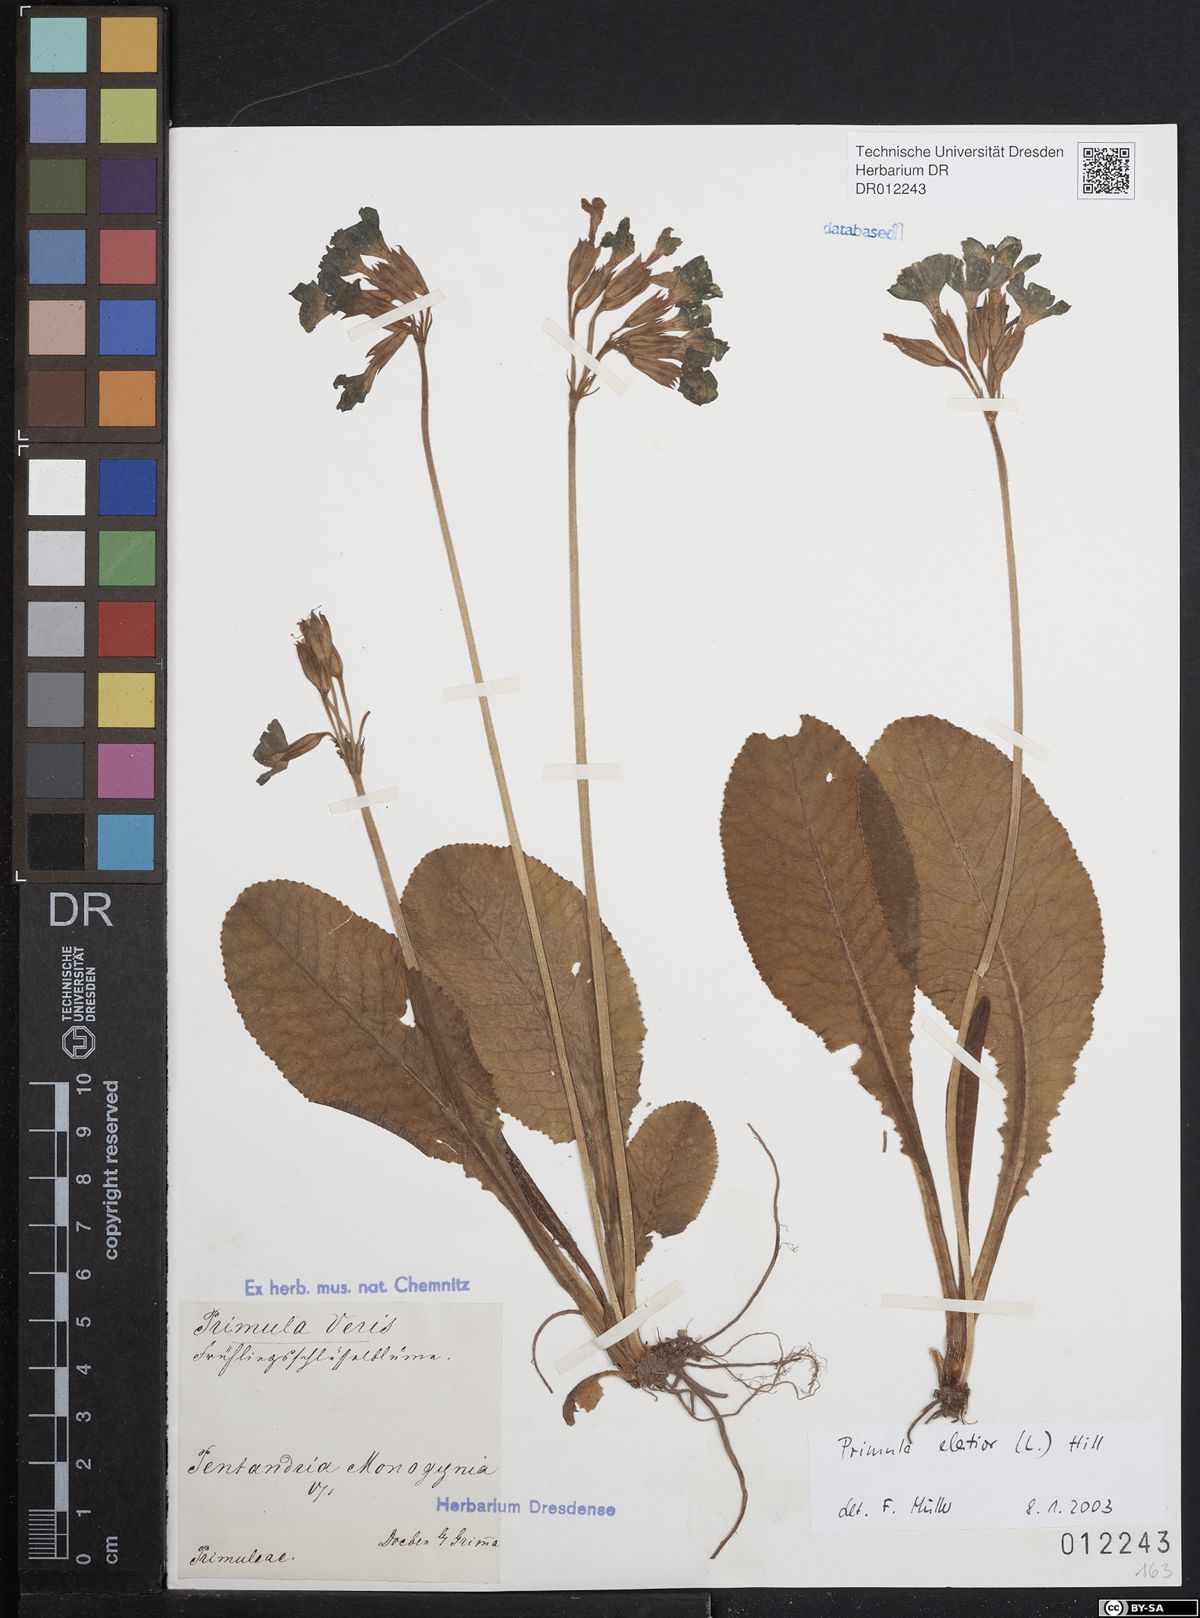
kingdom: Plantae
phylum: Tracheophyta
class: Magnoliopsida
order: Ericales
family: Primulaceae
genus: Primula
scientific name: Primula elatior
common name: Oxlip
